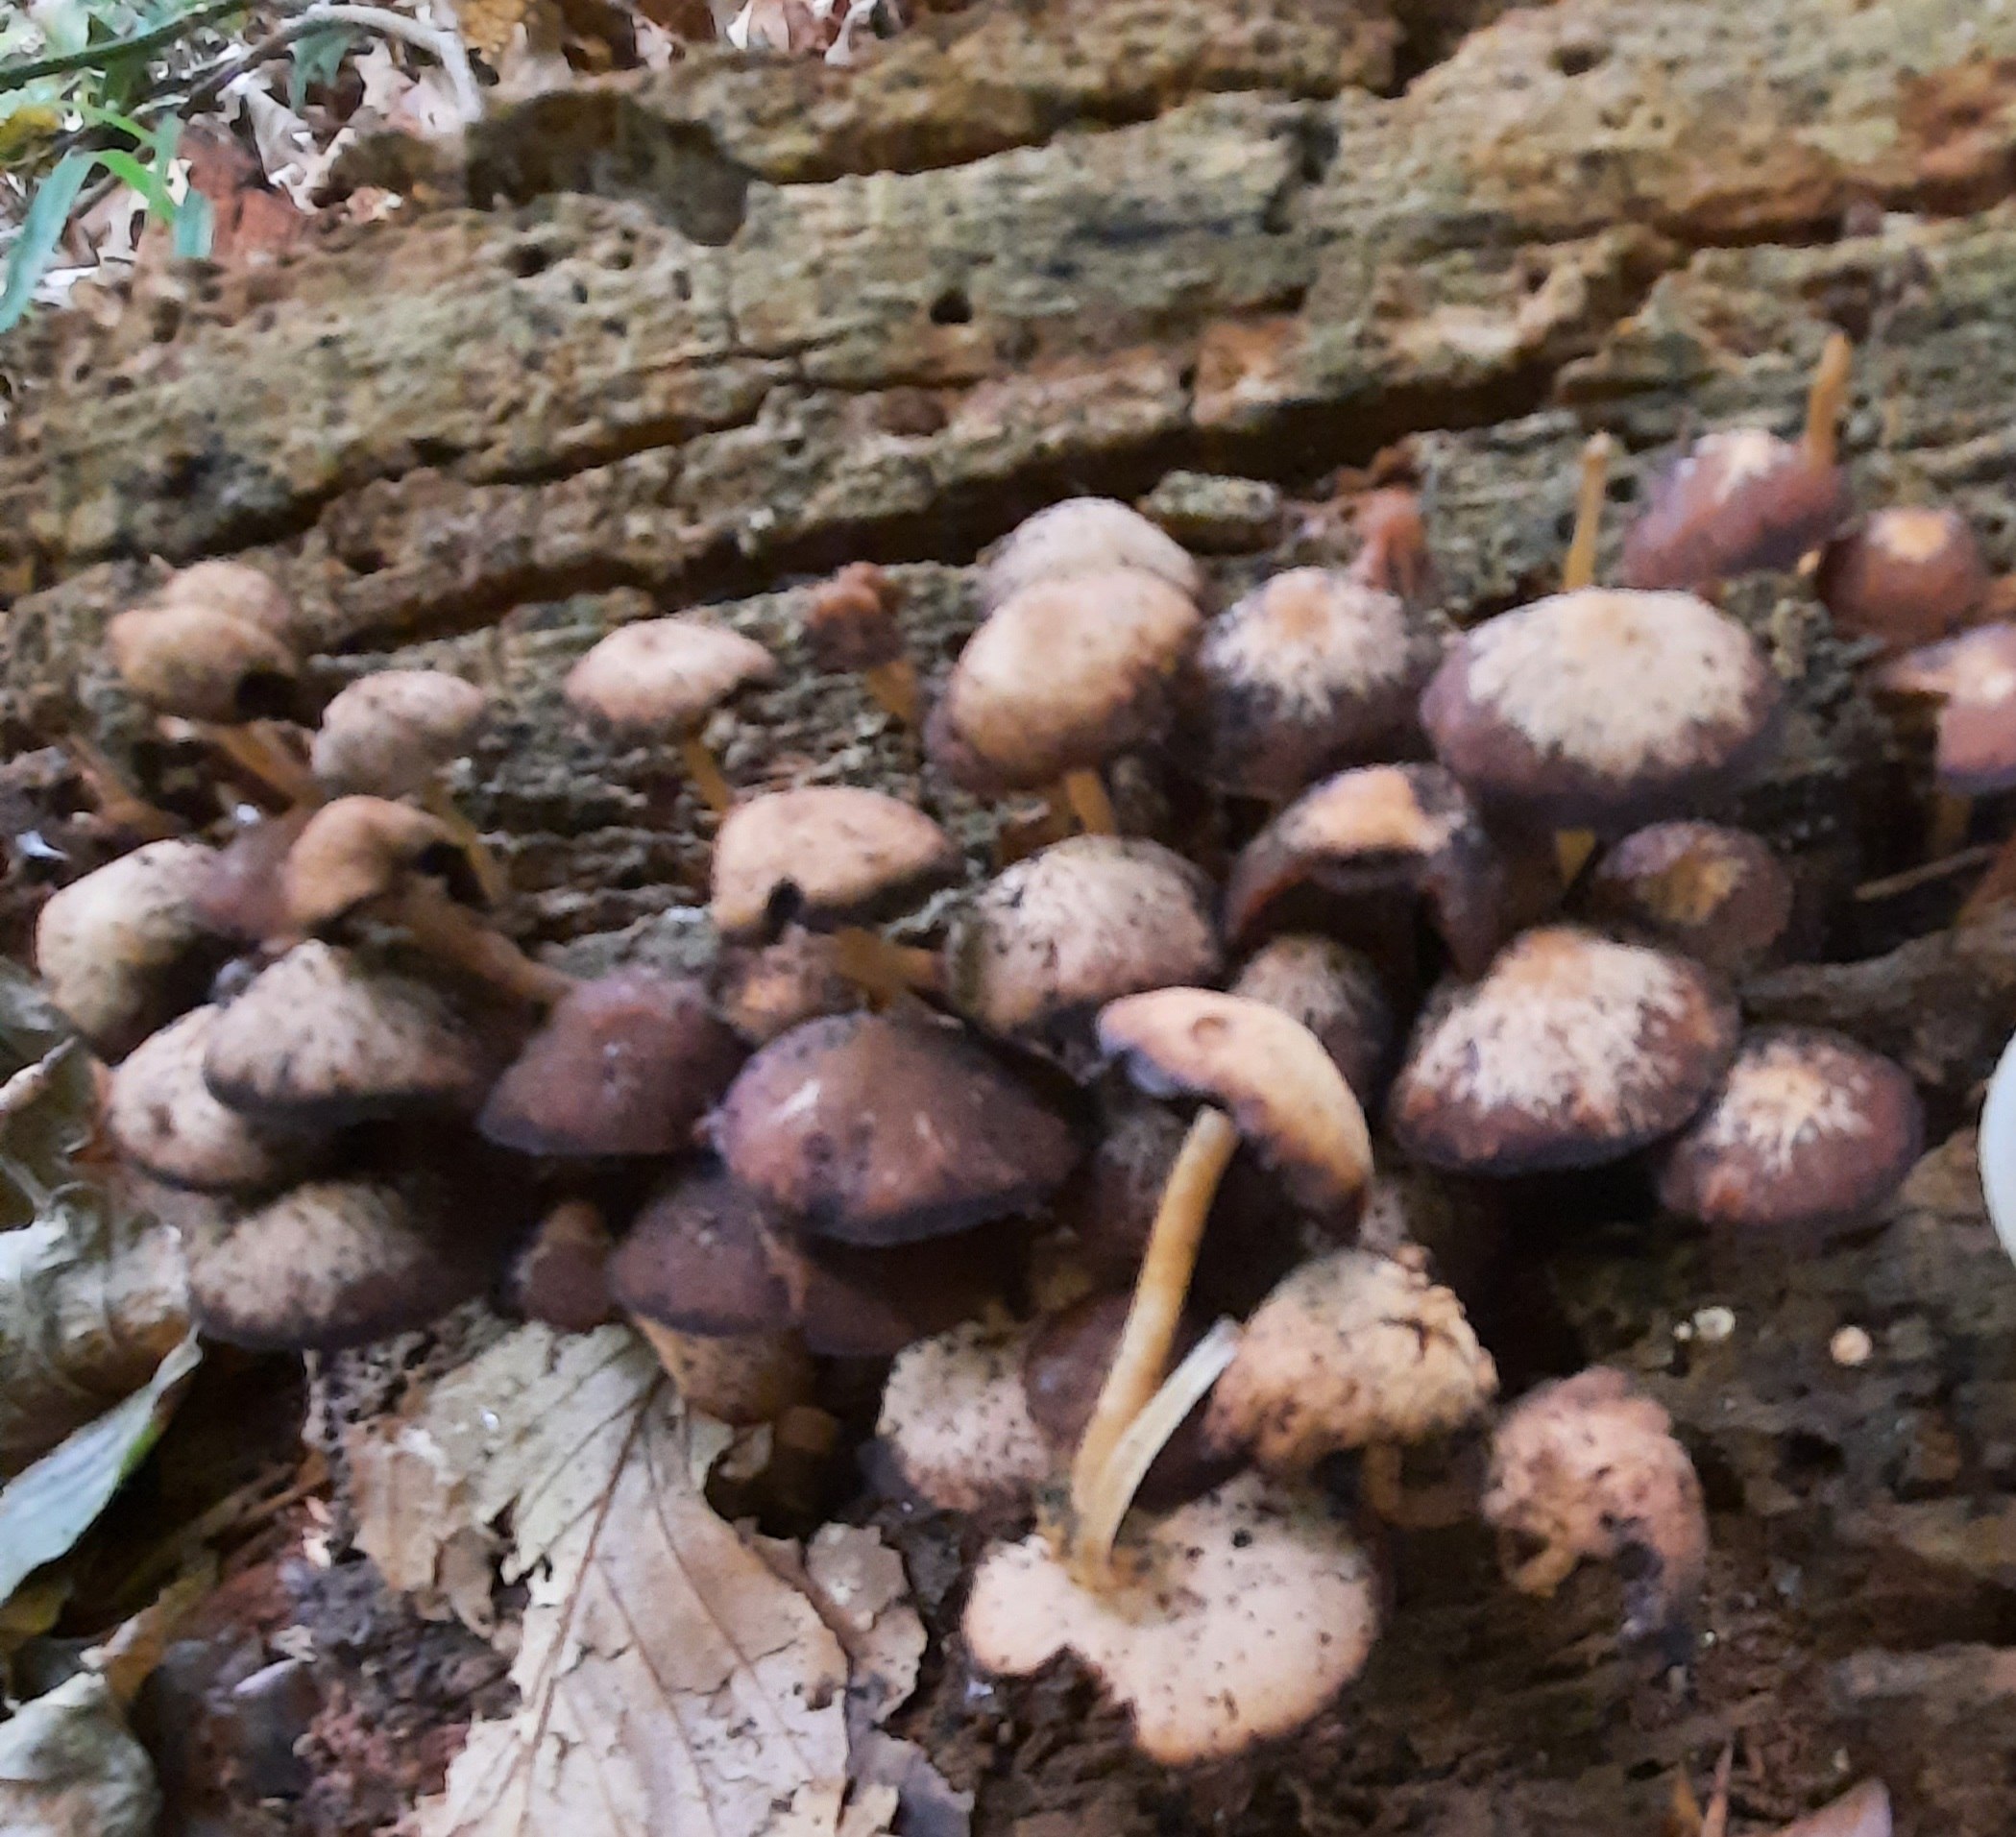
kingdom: Fungi
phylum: Basidiomycota
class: Agaricomycetes
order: Agaricales
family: Psathyrellaceae
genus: Psathyrella
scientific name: Psathyrella
